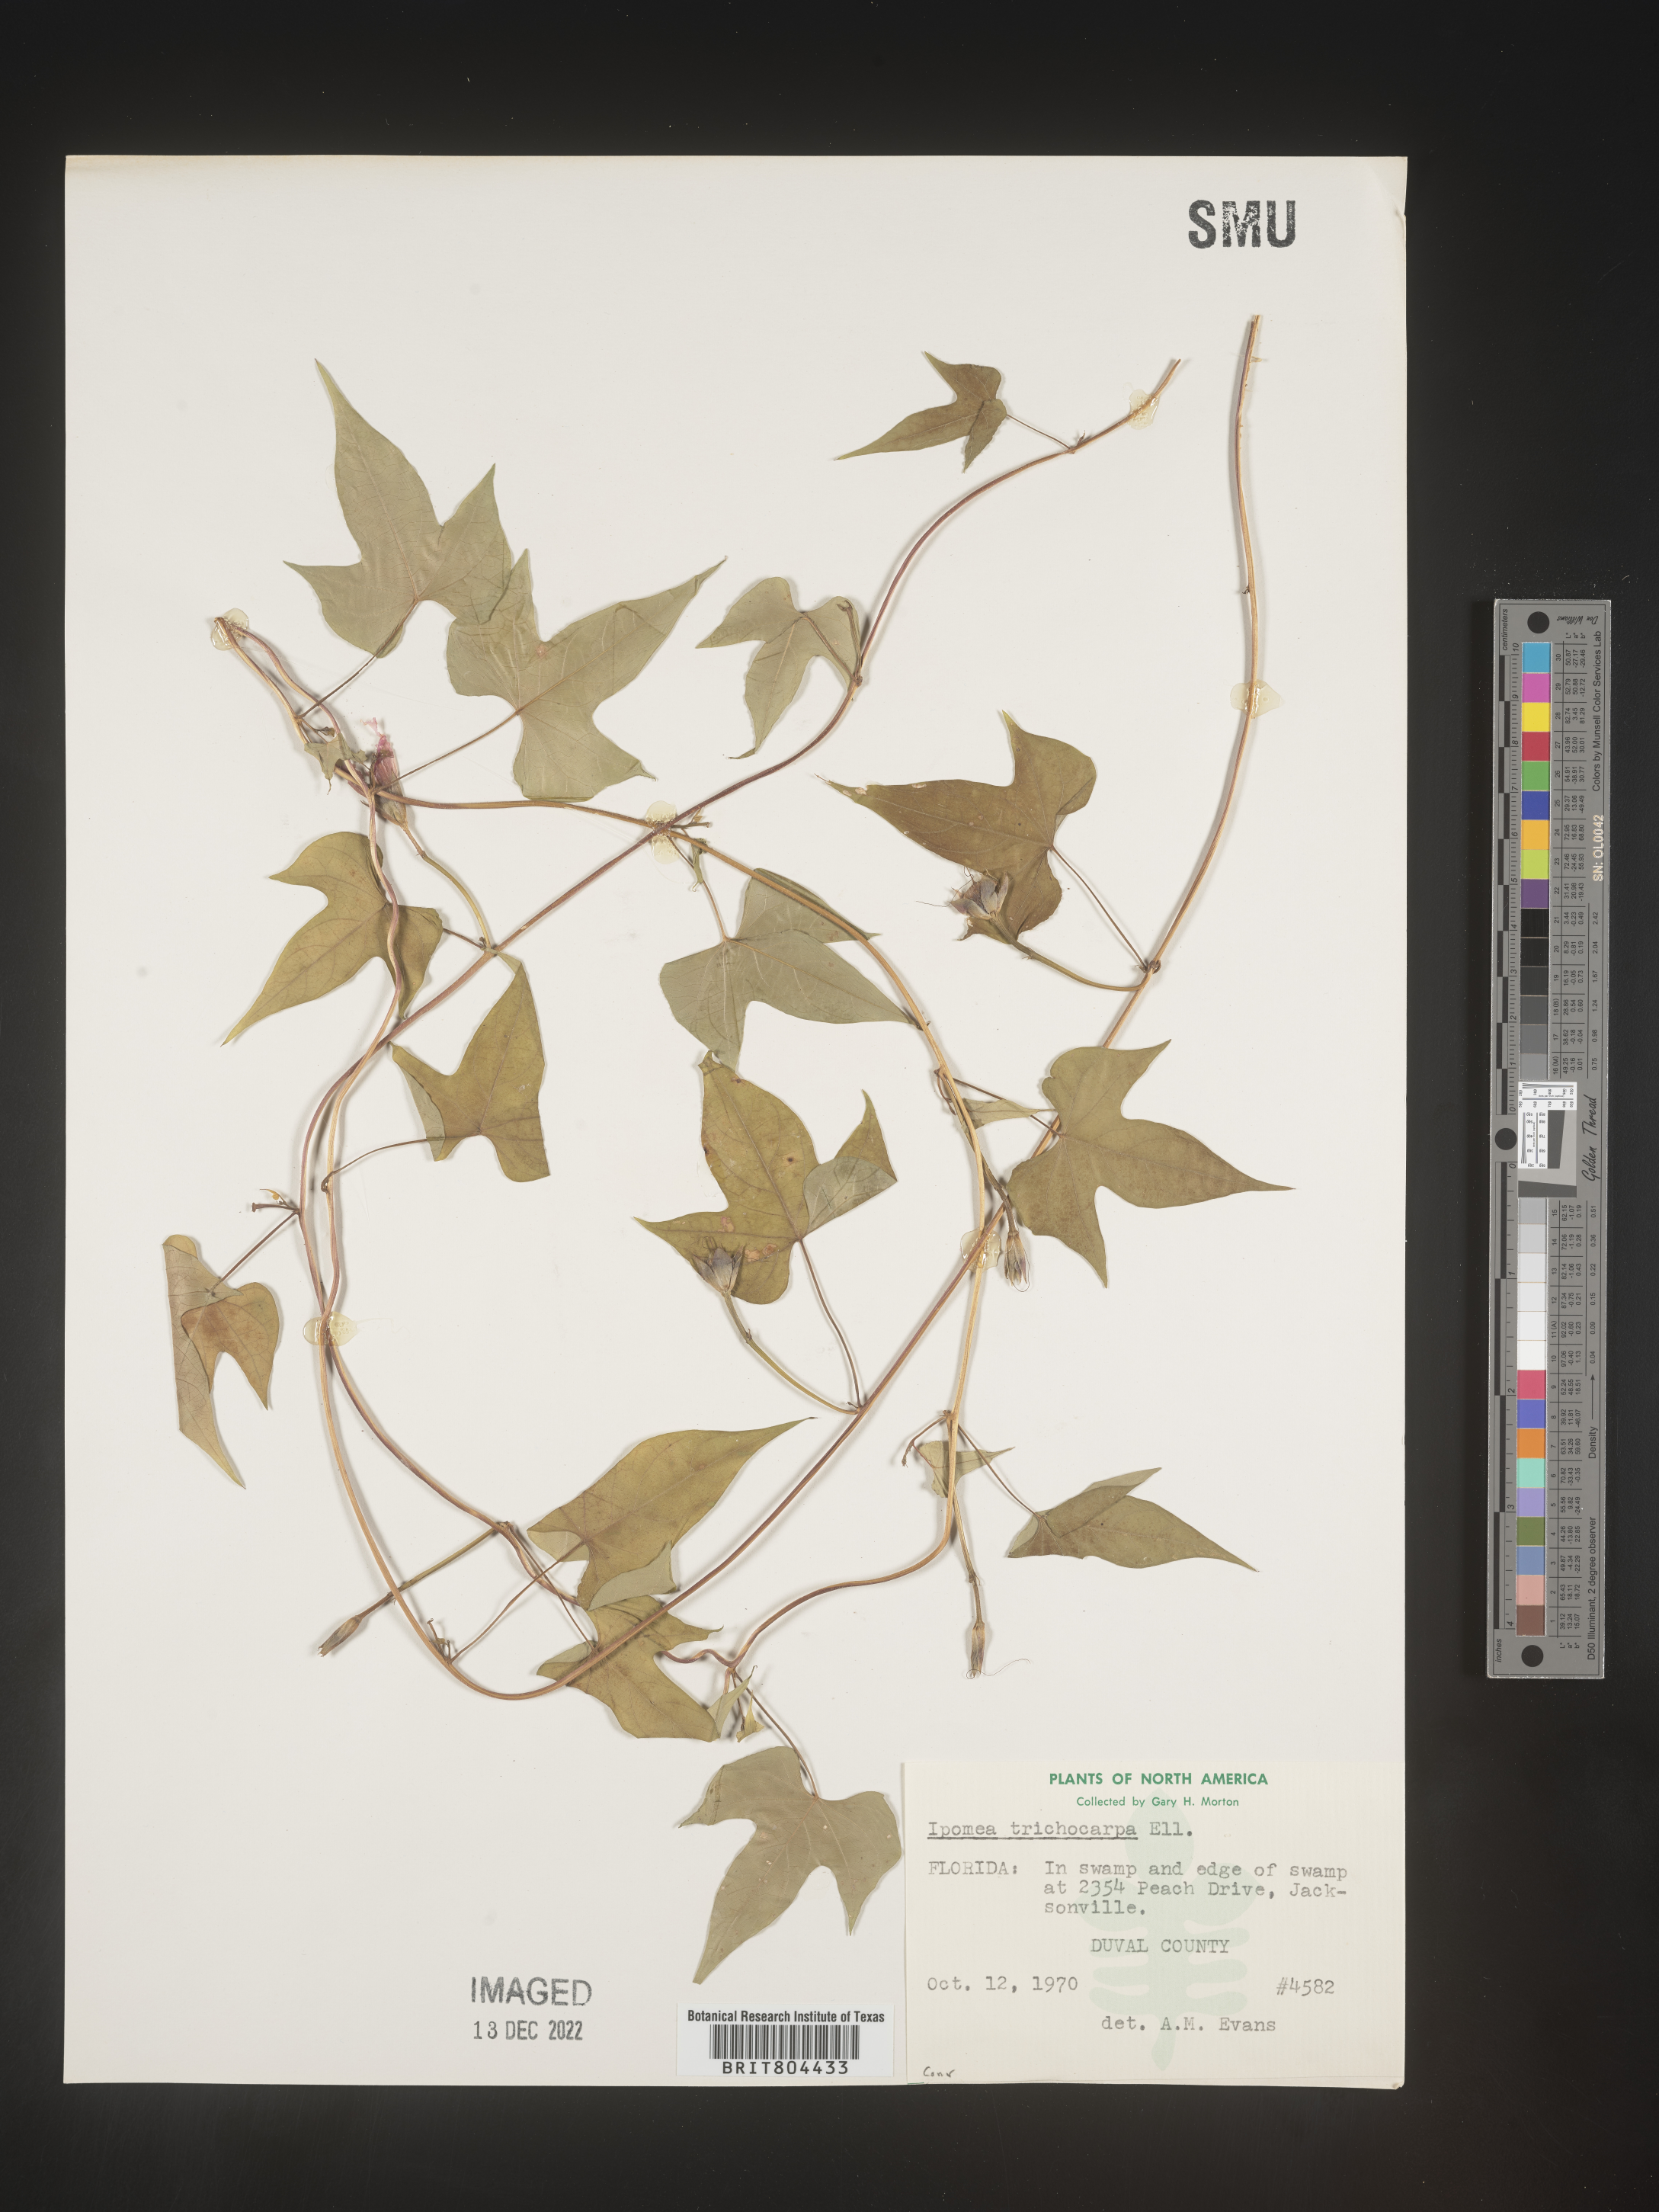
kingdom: Plantae
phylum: Tracheophyta
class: Magnoliopsida
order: Solanales
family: Convolvulaceae
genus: Ipomoea
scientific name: Ipomoea cordatotriloba
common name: Cotton morning glory
